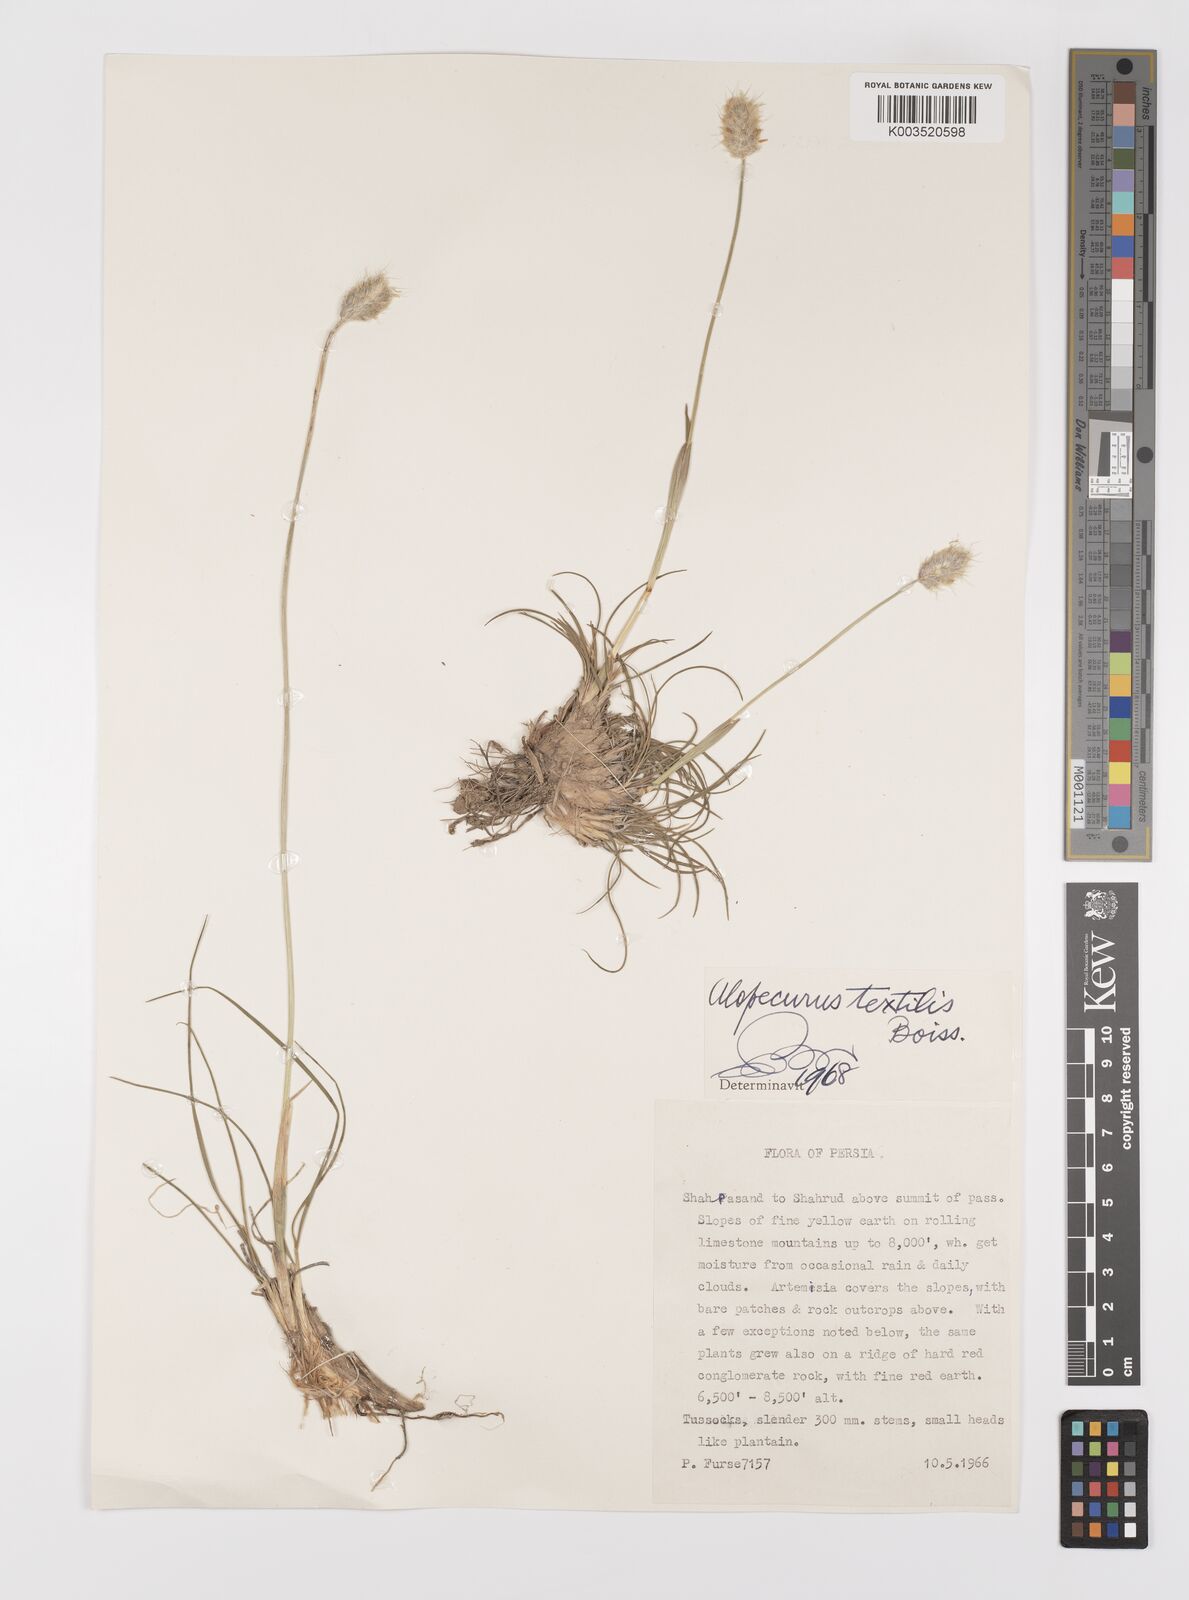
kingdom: Plantae
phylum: Tracheophyta
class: Liliopsida
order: Poales
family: Poaceae
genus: Alopecurus
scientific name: Alopecurus textilis
